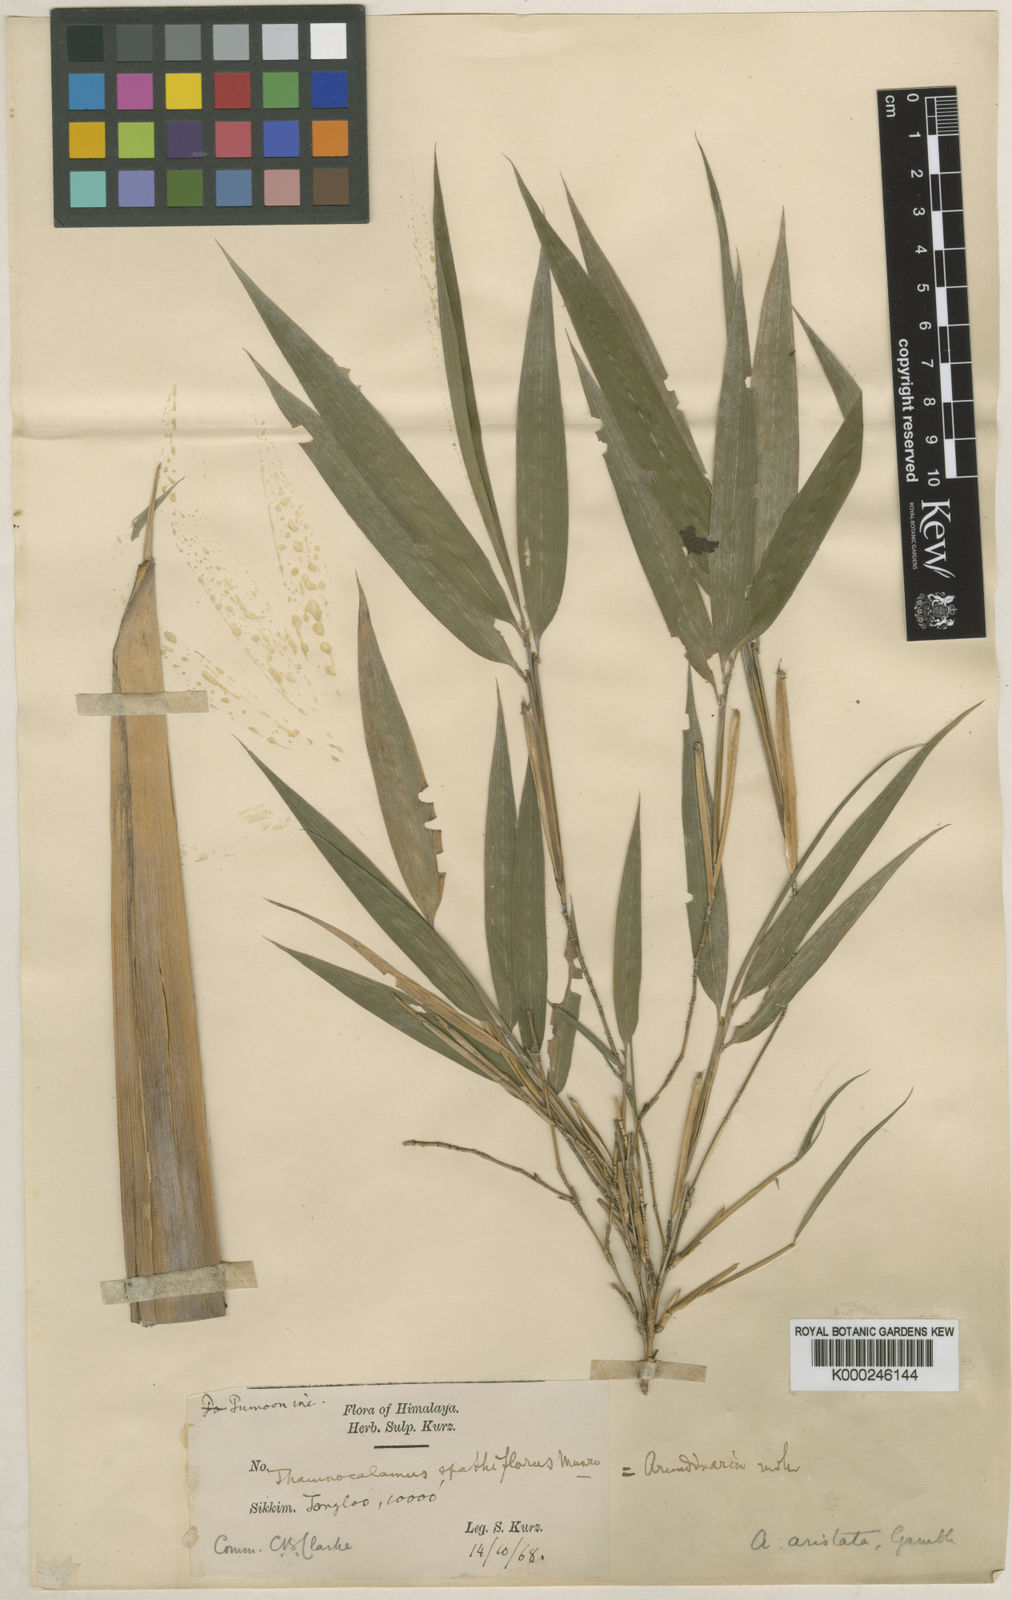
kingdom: Plantae
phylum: Tracheophyta
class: Liliopsida
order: Poales
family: Poaceae
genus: Thamnocalamus
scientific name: Thamnocalamus chigar
